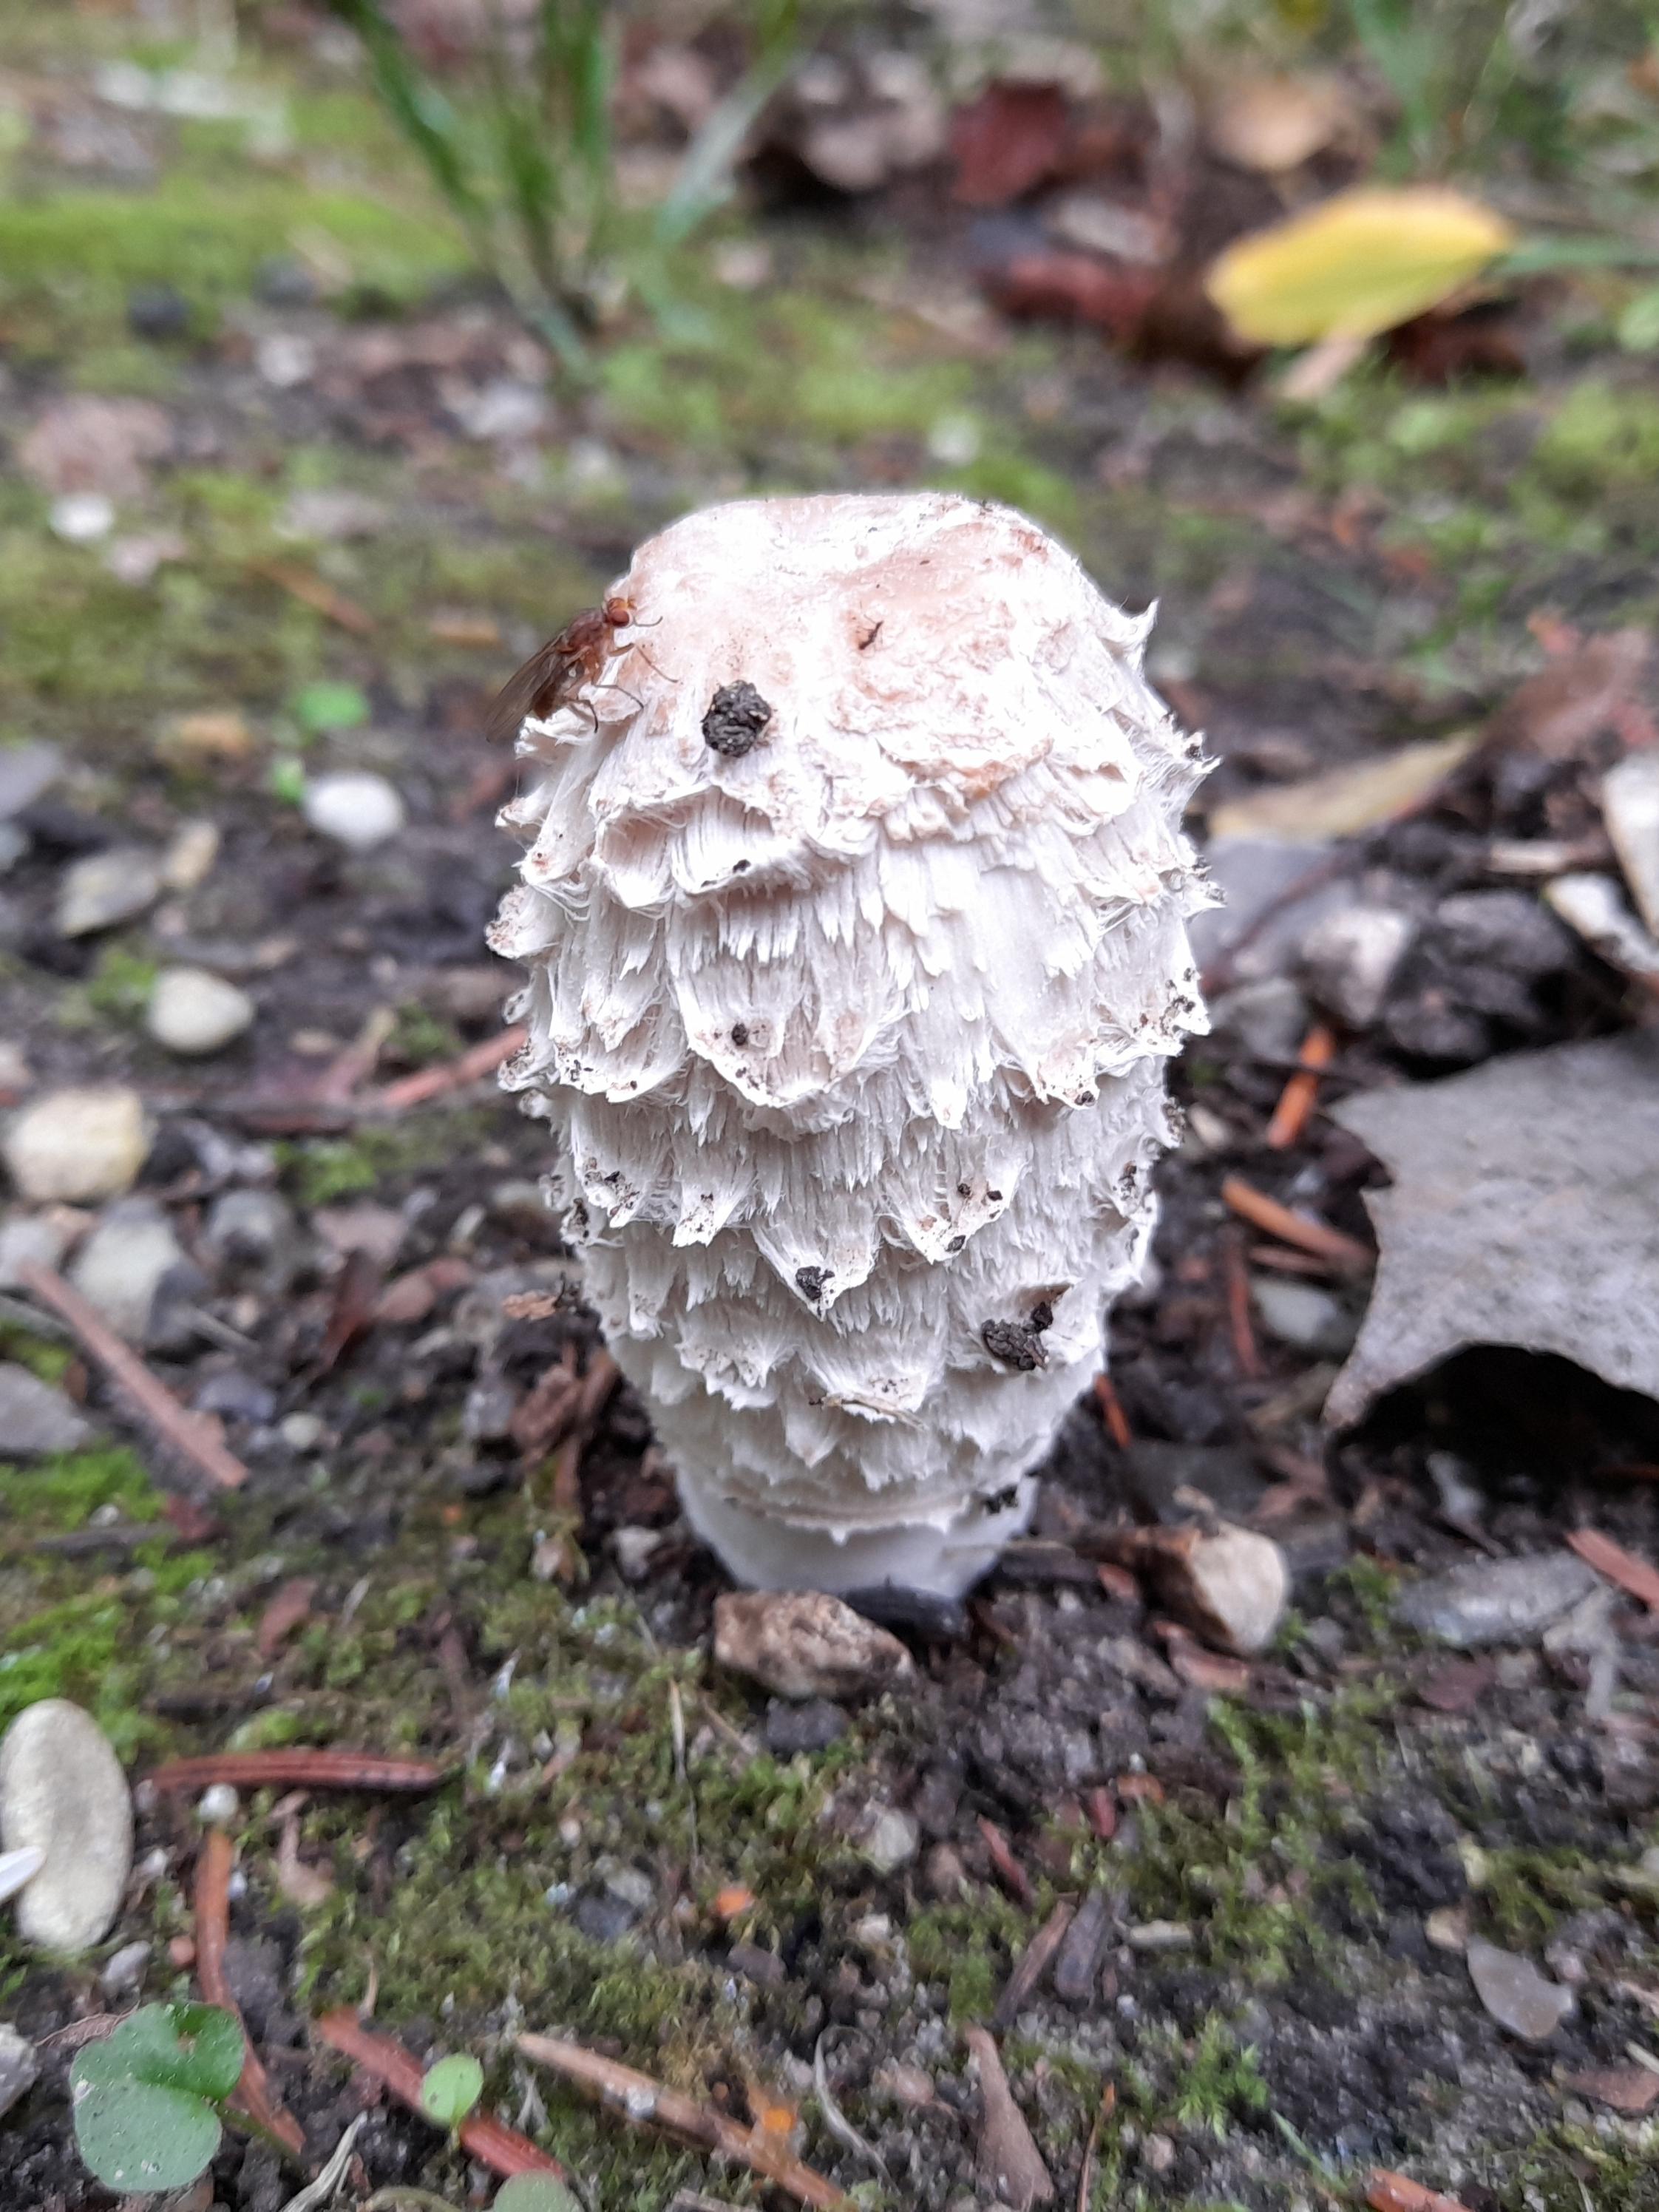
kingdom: Fungi
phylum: Basidiomycota
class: Agaricomycetes
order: Agaricales
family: Agaricaceae
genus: Coprinus
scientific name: Coprinus comatus
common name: stor parykhat
